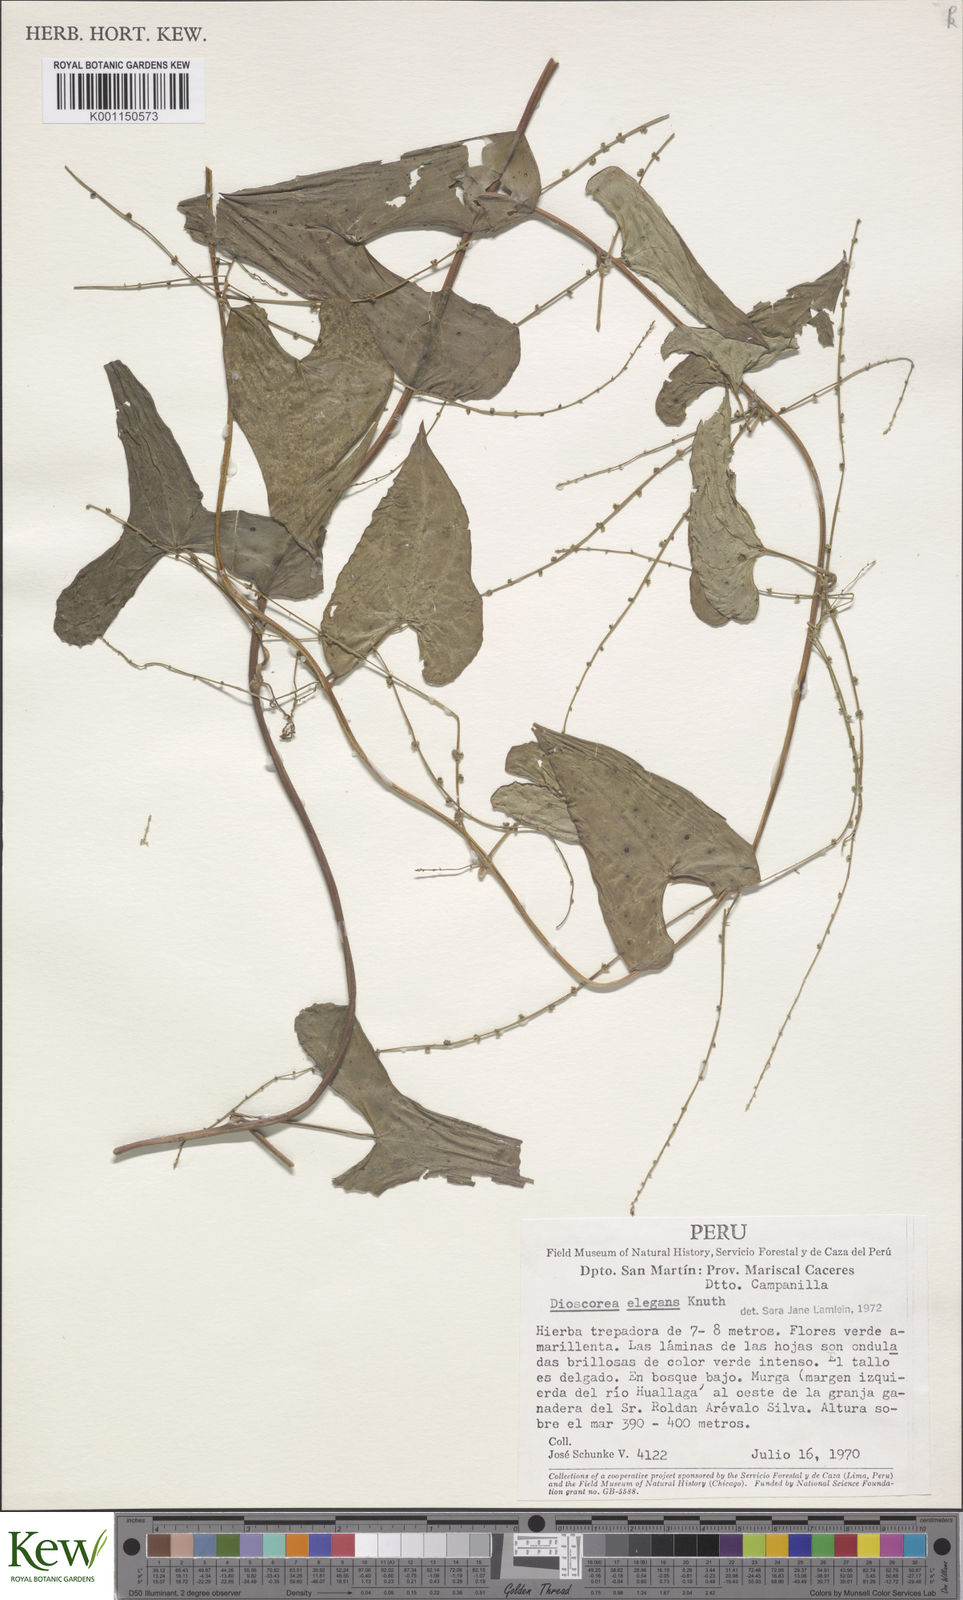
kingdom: Plantae
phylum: Tracheophyta
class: Liliopsida
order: Dioscoreales
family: Dioscoreaceae
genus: Dioscorea
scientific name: Dioscorea elegans
